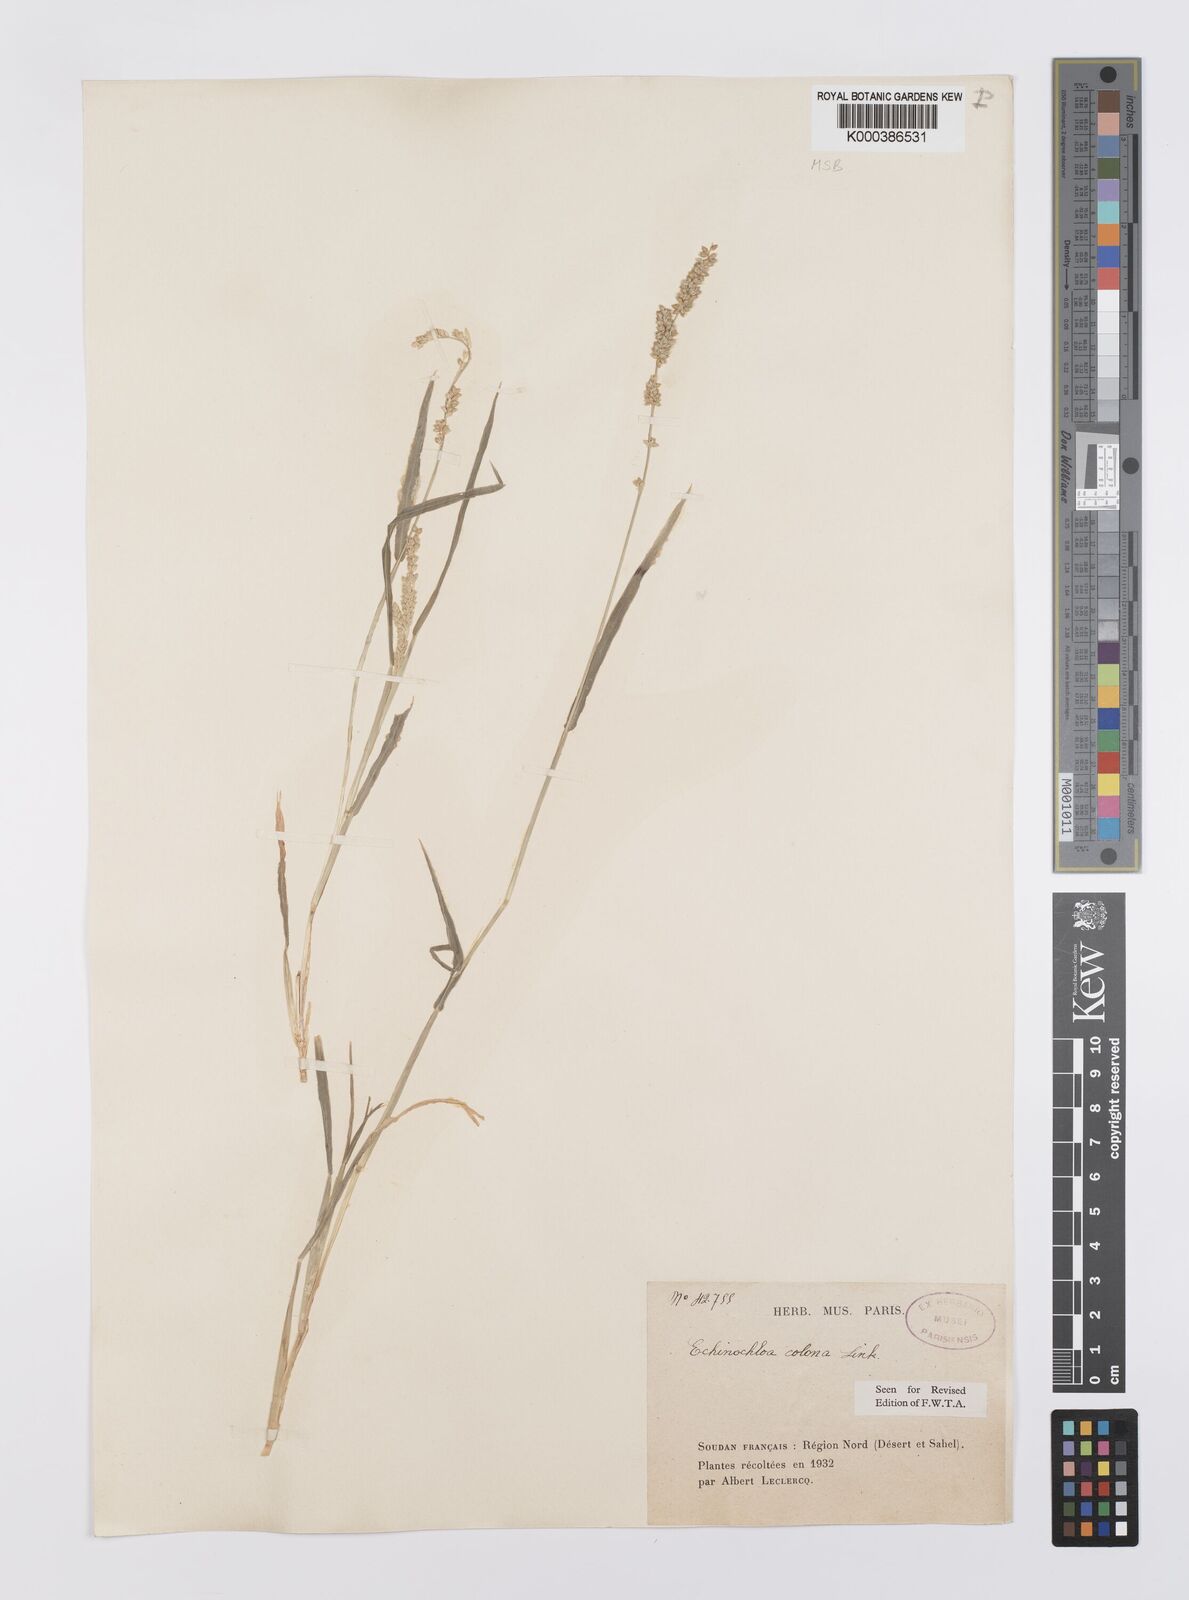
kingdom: Plantae
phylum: Tracheophyta
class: Liliopsida
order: Poales
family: Poaceae
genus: Echinochloa
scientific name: Echinochloa colonum
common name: Jungle rice
